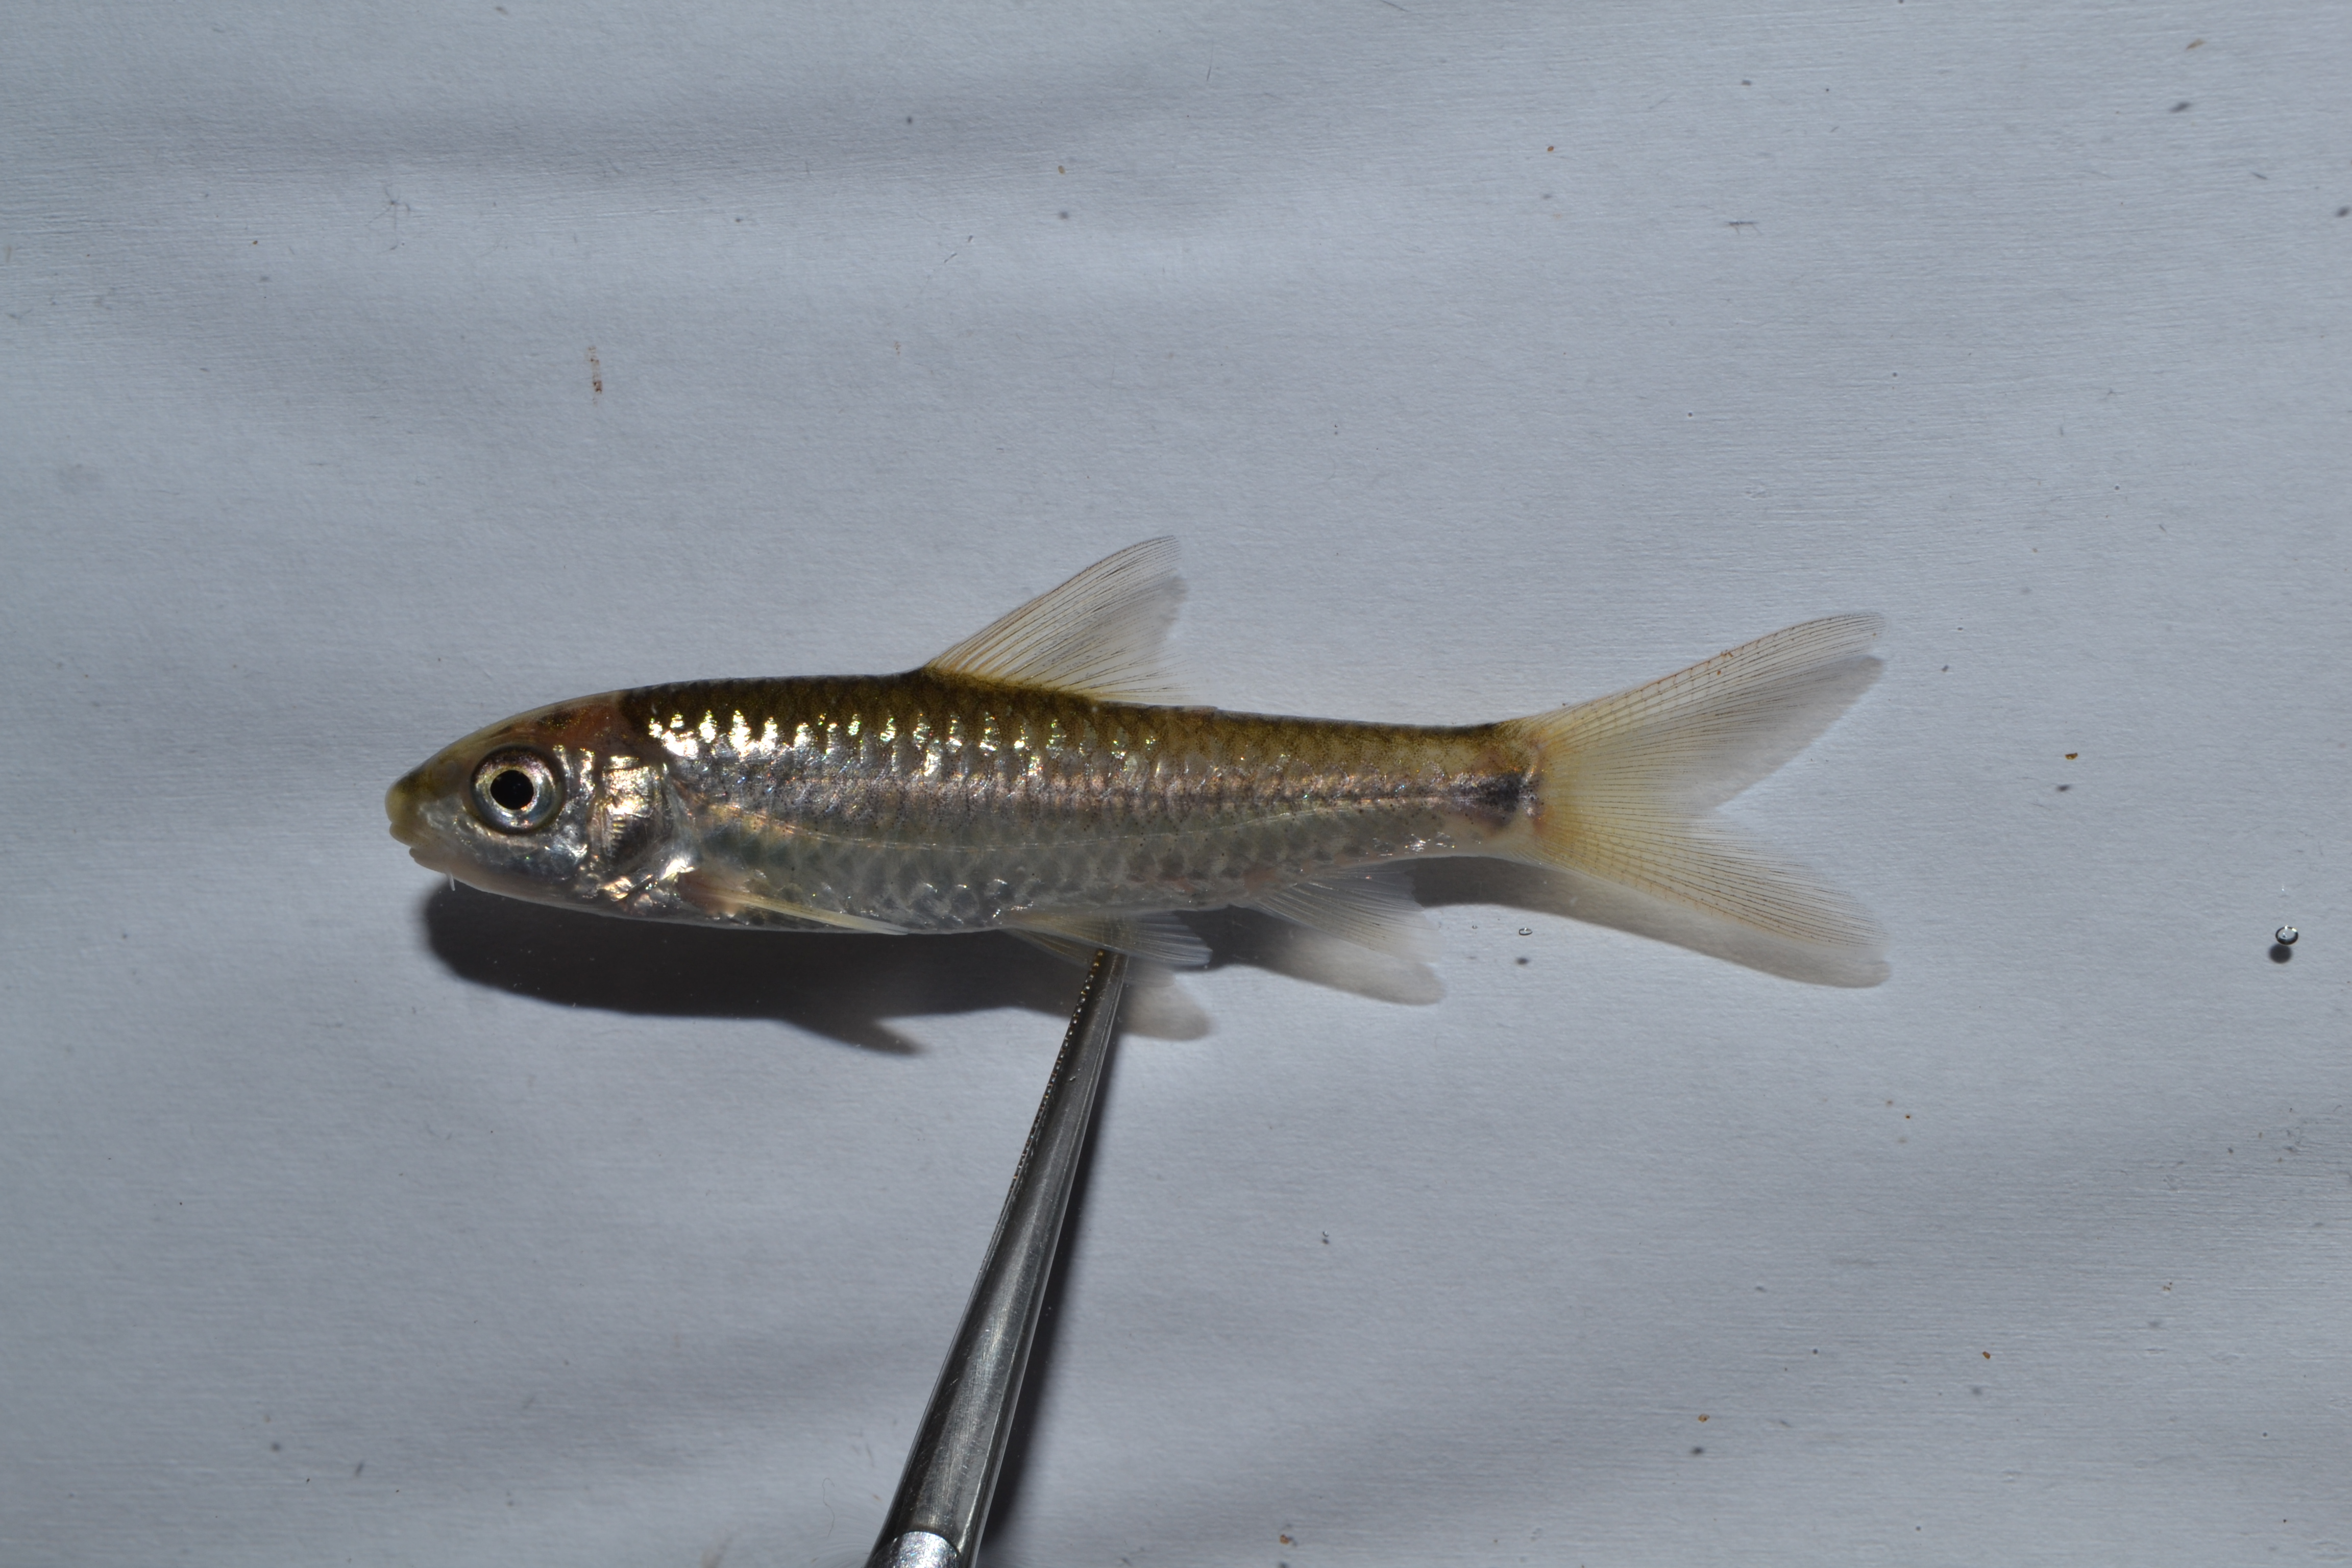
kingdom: Animalia
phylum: Chordata
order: Cypriniformes
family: Cyprinidae
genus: Labeobarbus
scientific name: Labeobarbus pungweensis
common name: Pungwe chiselmouth
